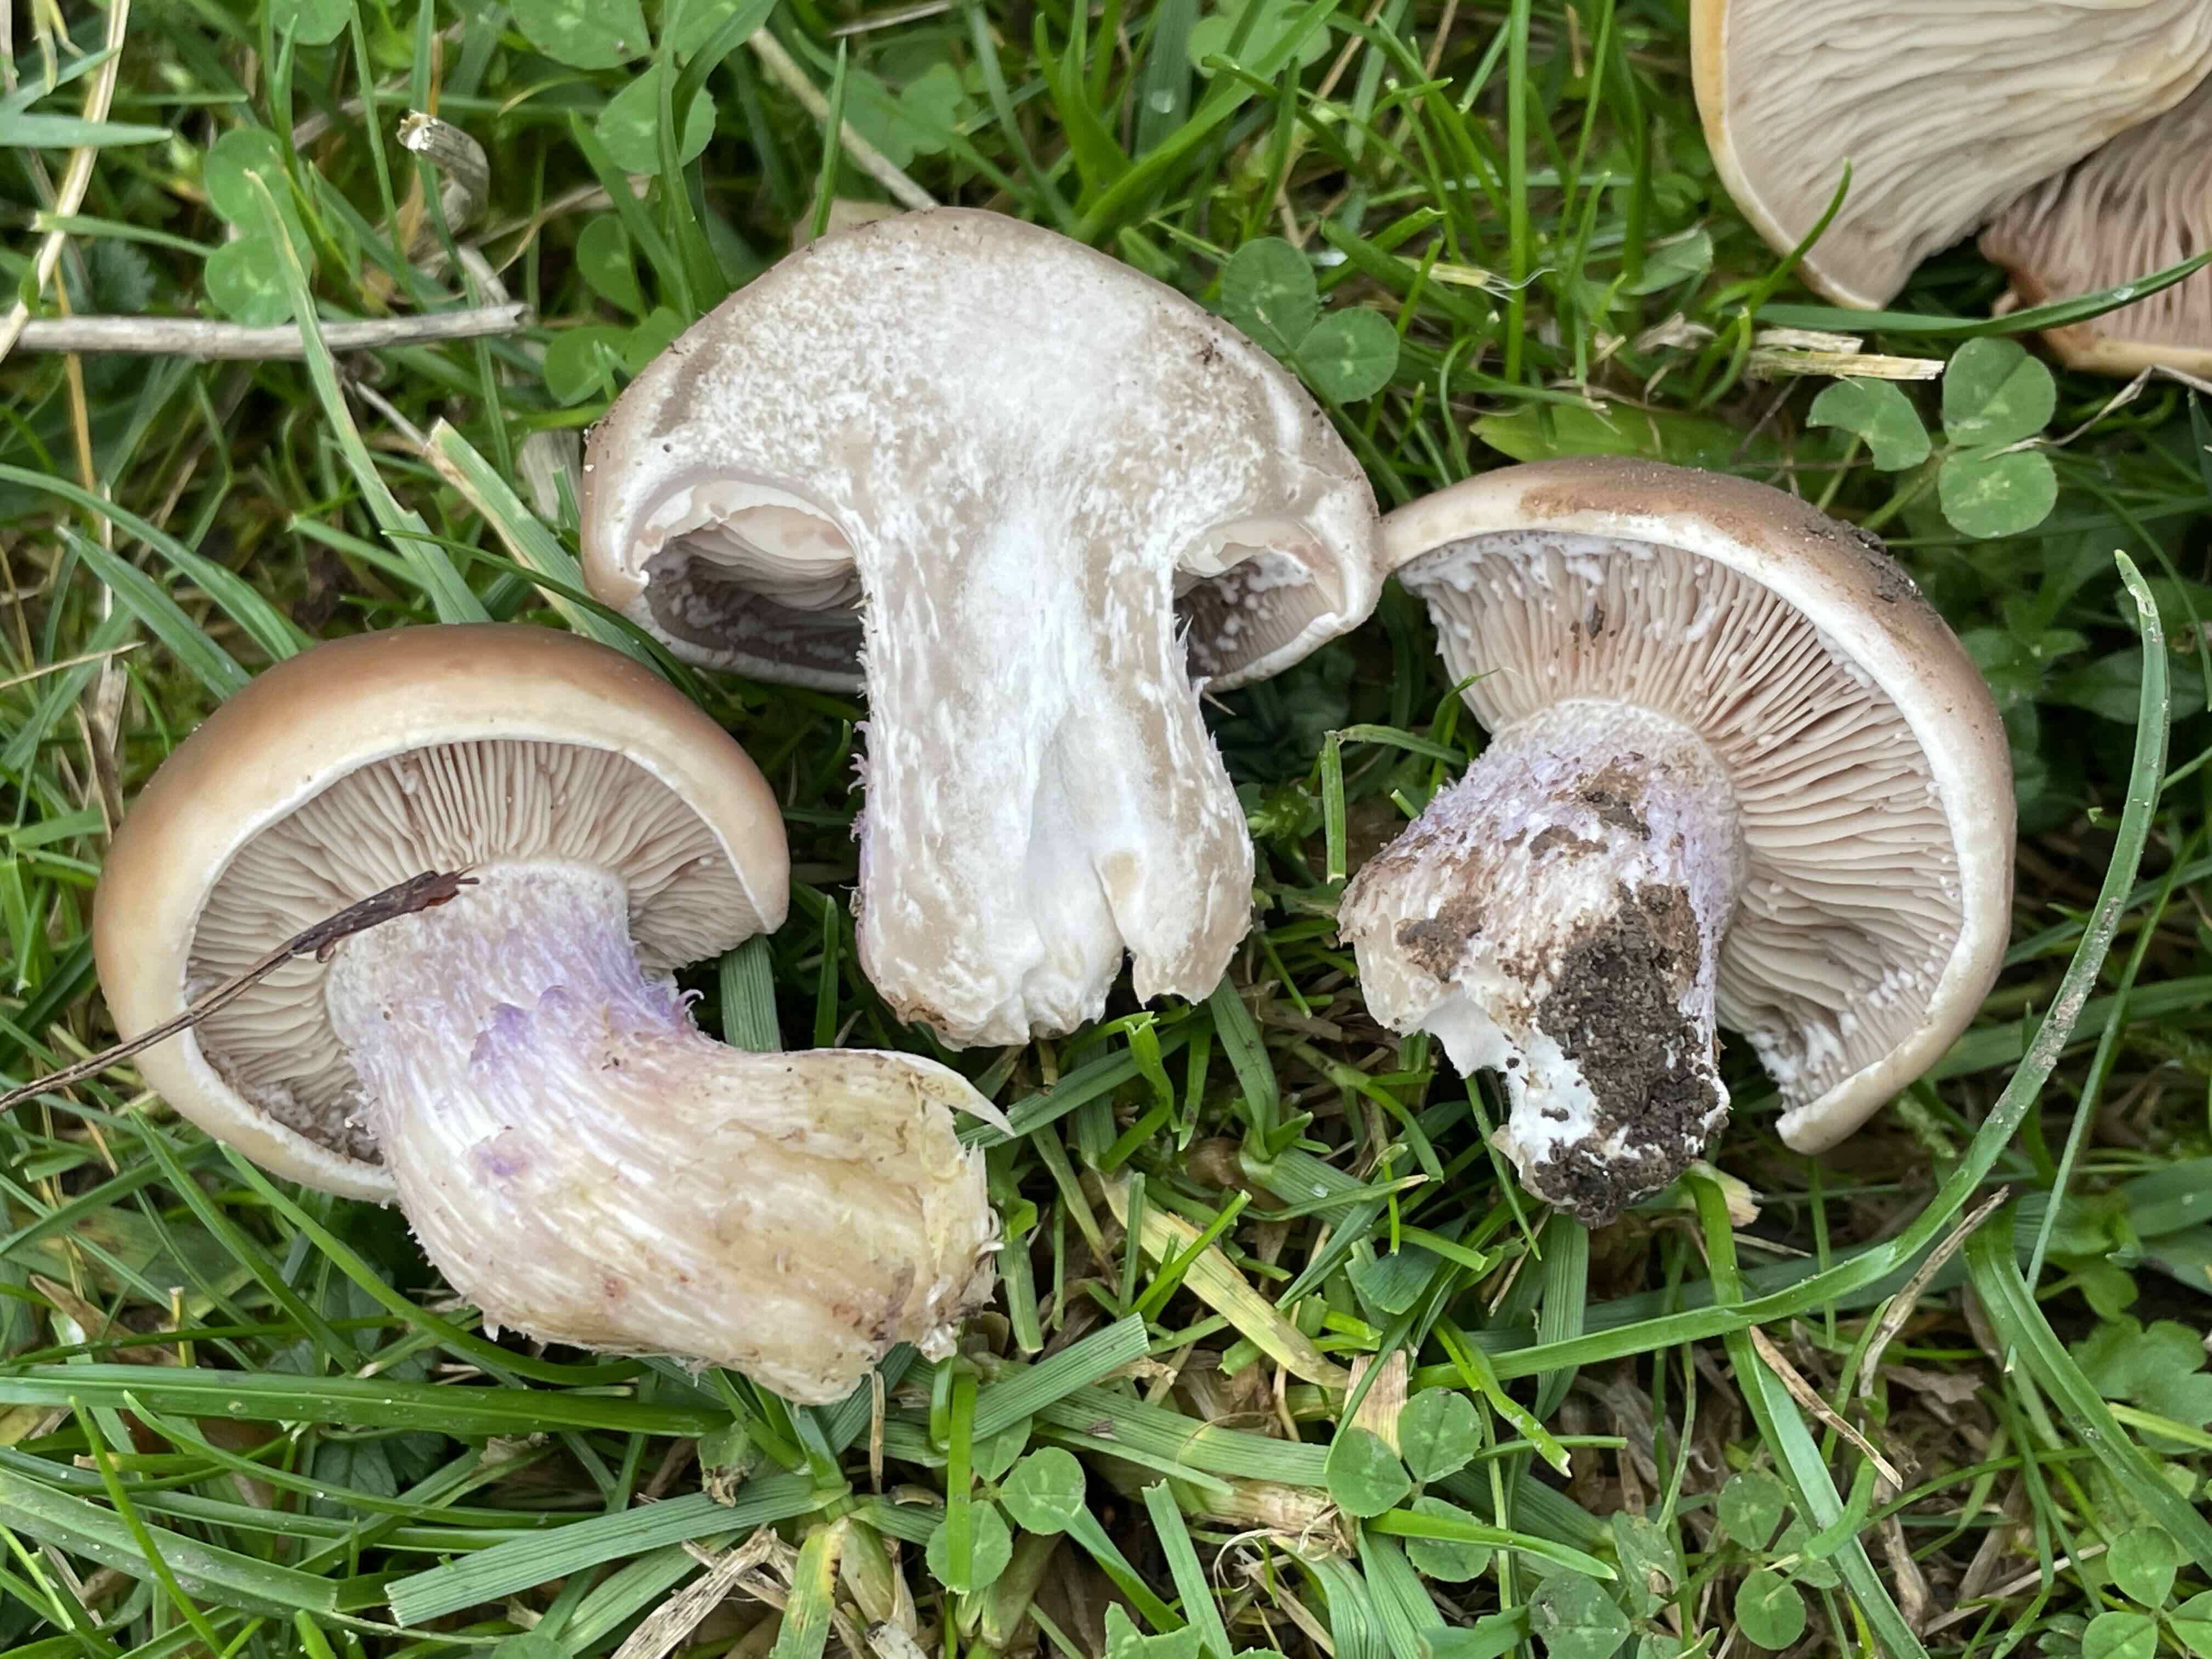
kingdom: Fungi
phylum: Basidiomycota
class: Agaricomycetes
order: Agaricales
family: Tricholomataceae
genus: Lepista
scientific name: Lepista personata
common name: bleg hekseringshat
